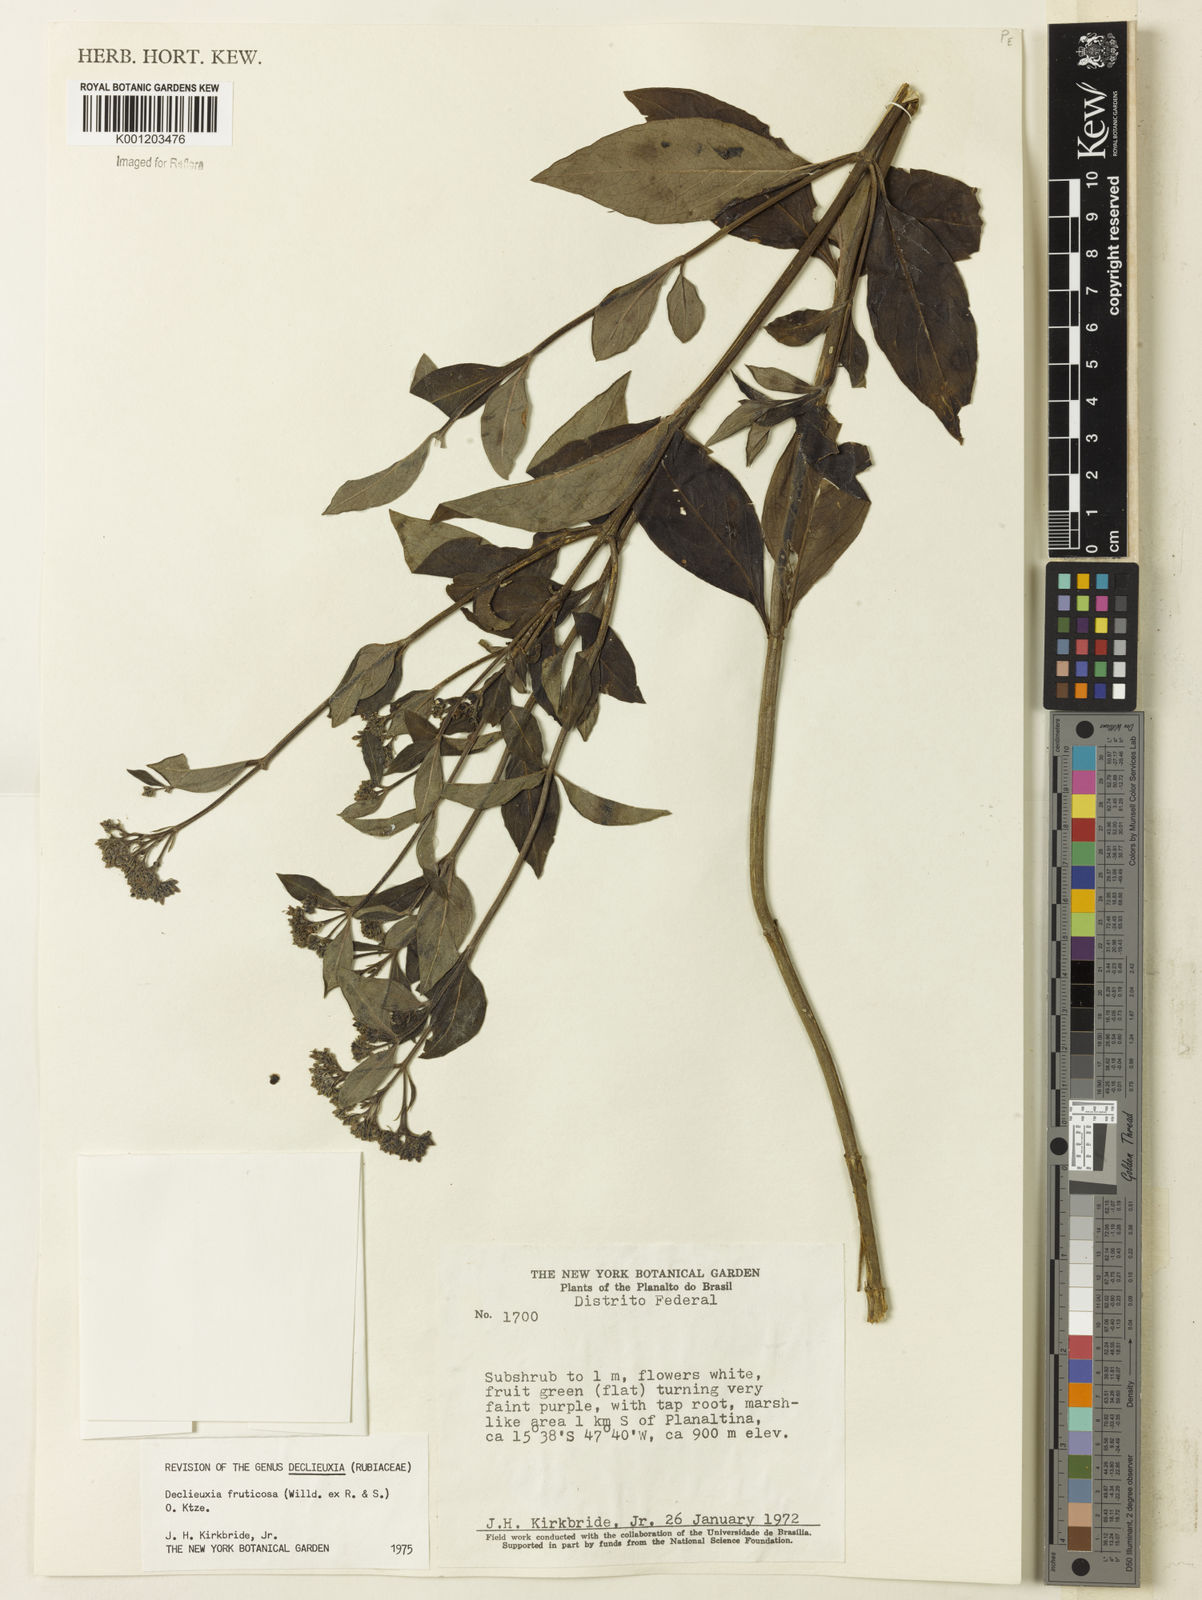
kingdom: Plantae
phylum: Tracheophyta
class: Magnoliopsida
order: Gentianales
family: Rubiaceae
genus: Declieuxia
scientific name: Declieuxia fruticosa
